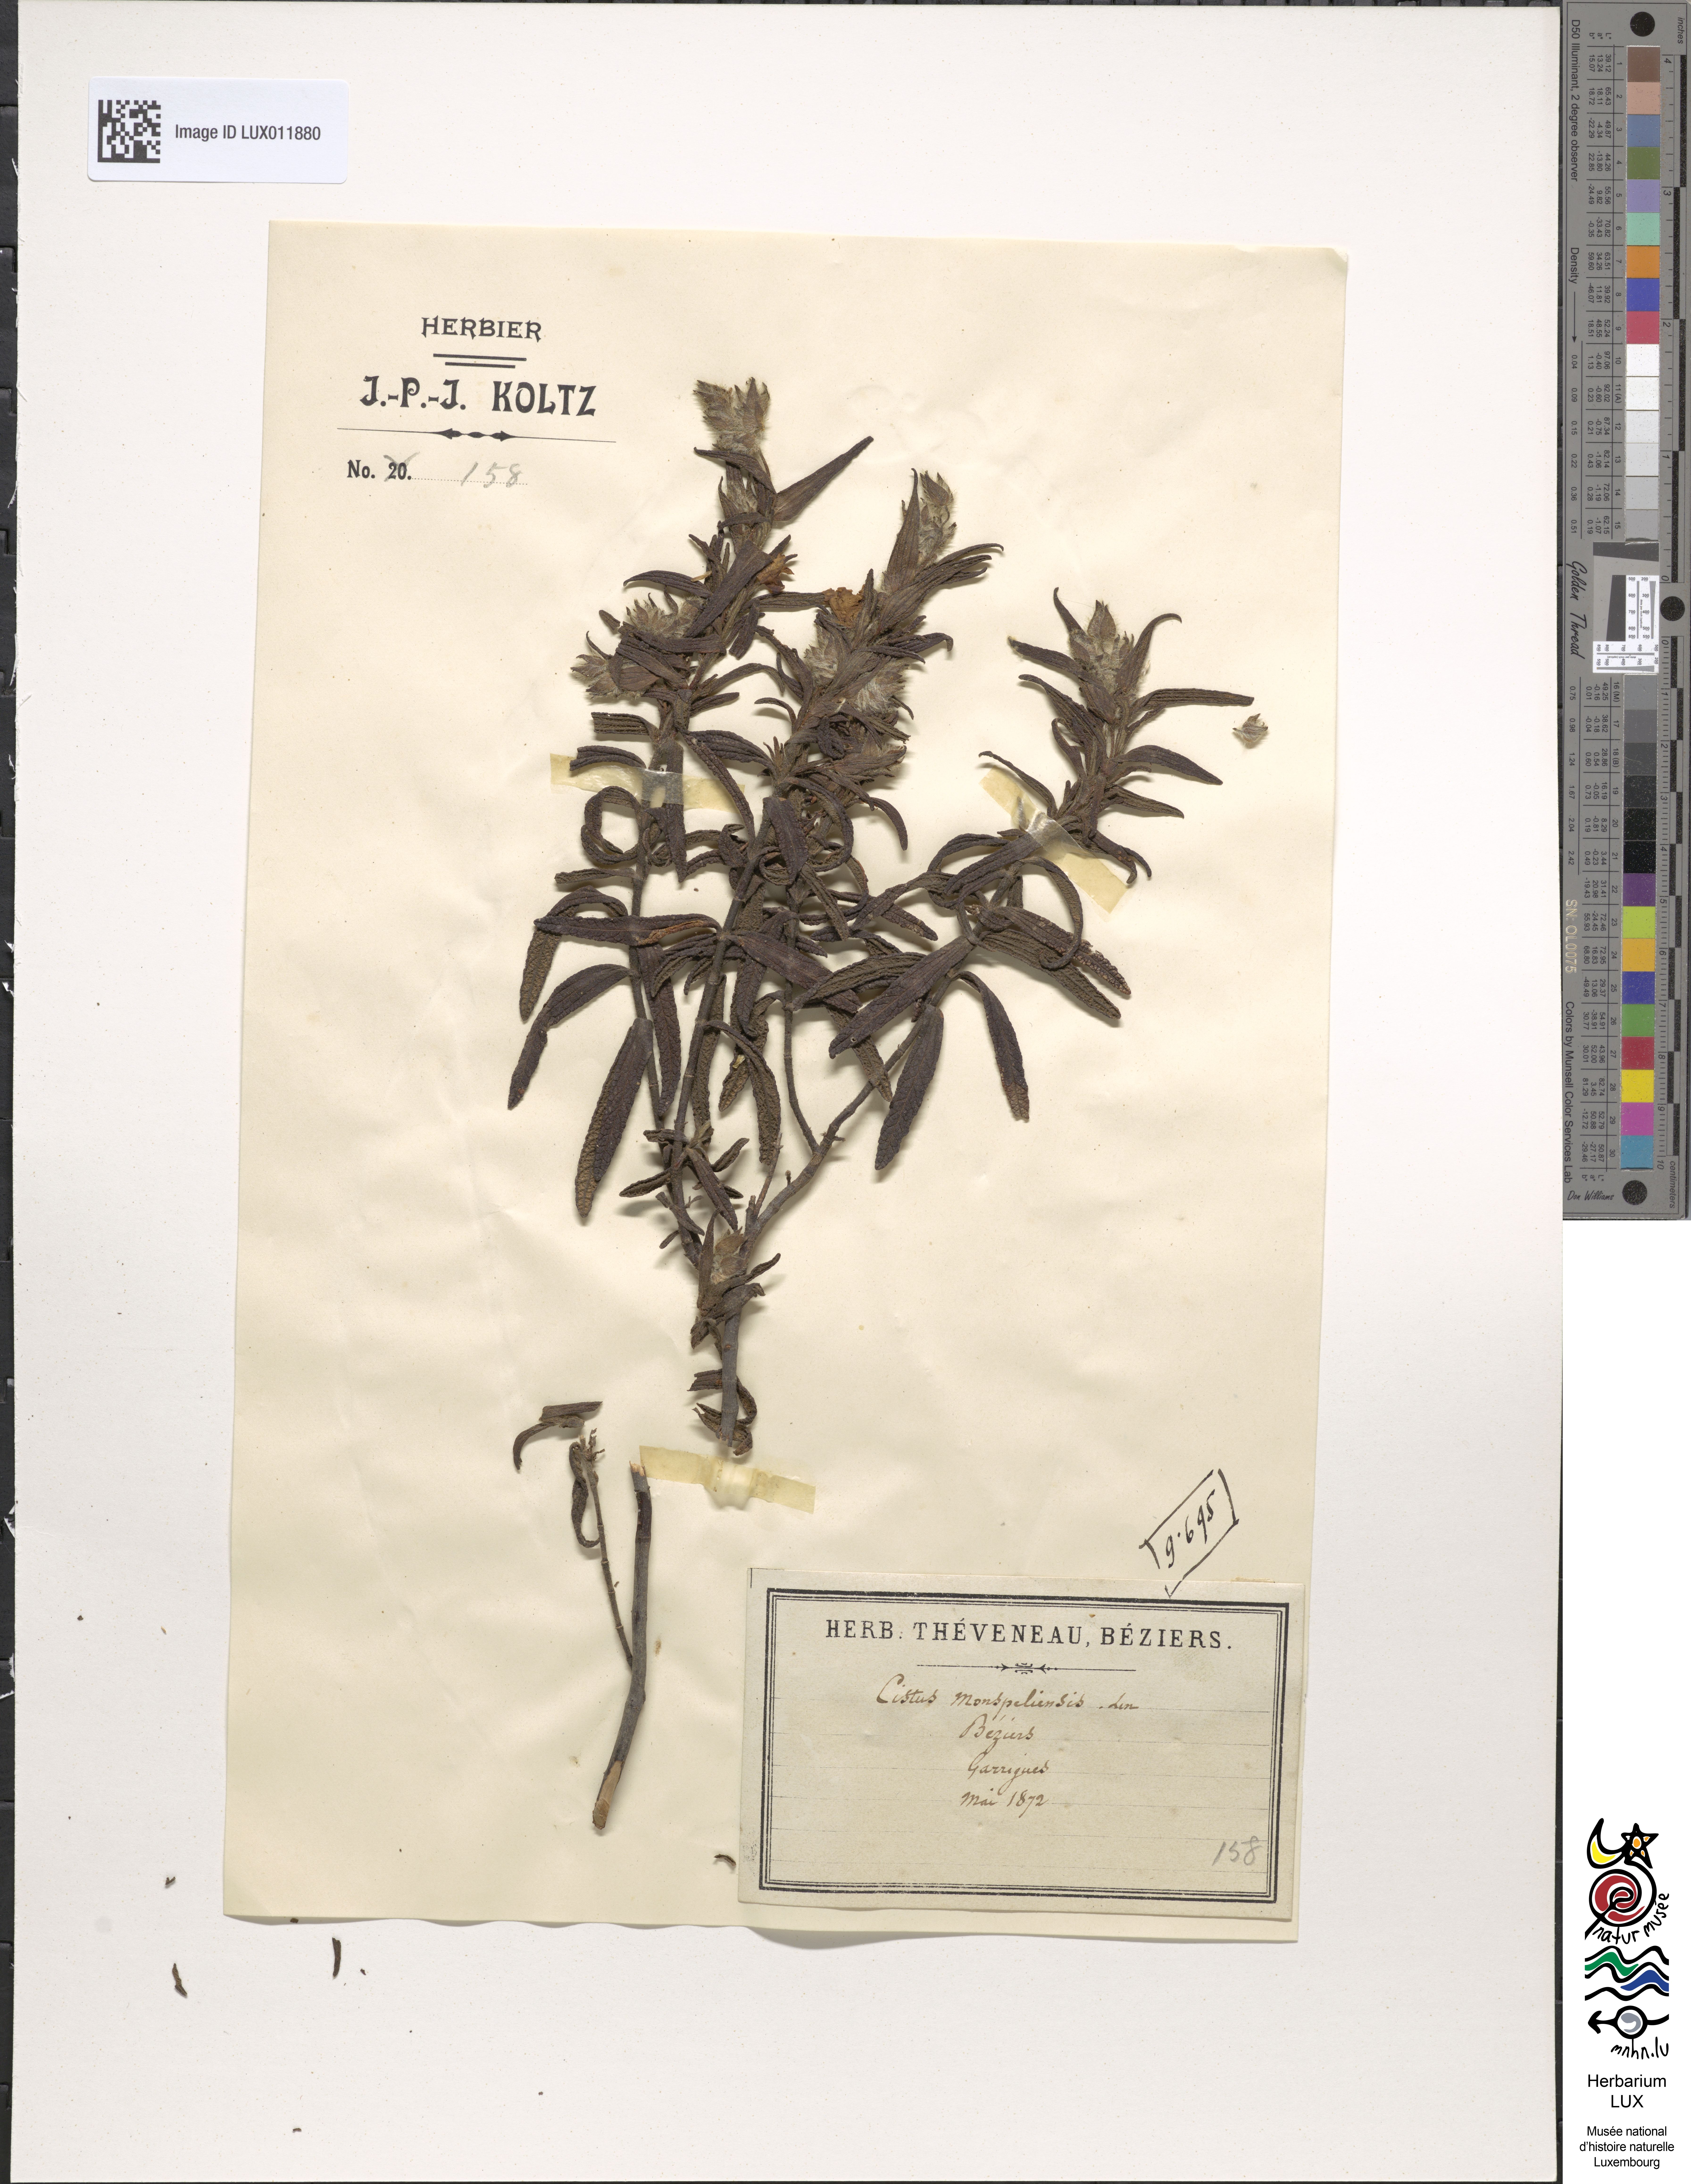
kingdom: Plantae
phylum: Tracheophyta
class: Magnoliopsida
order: Malvales
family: Cistaceae
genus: Cistus
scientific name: Cistus monspeliensis
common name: Montpelier cistus
